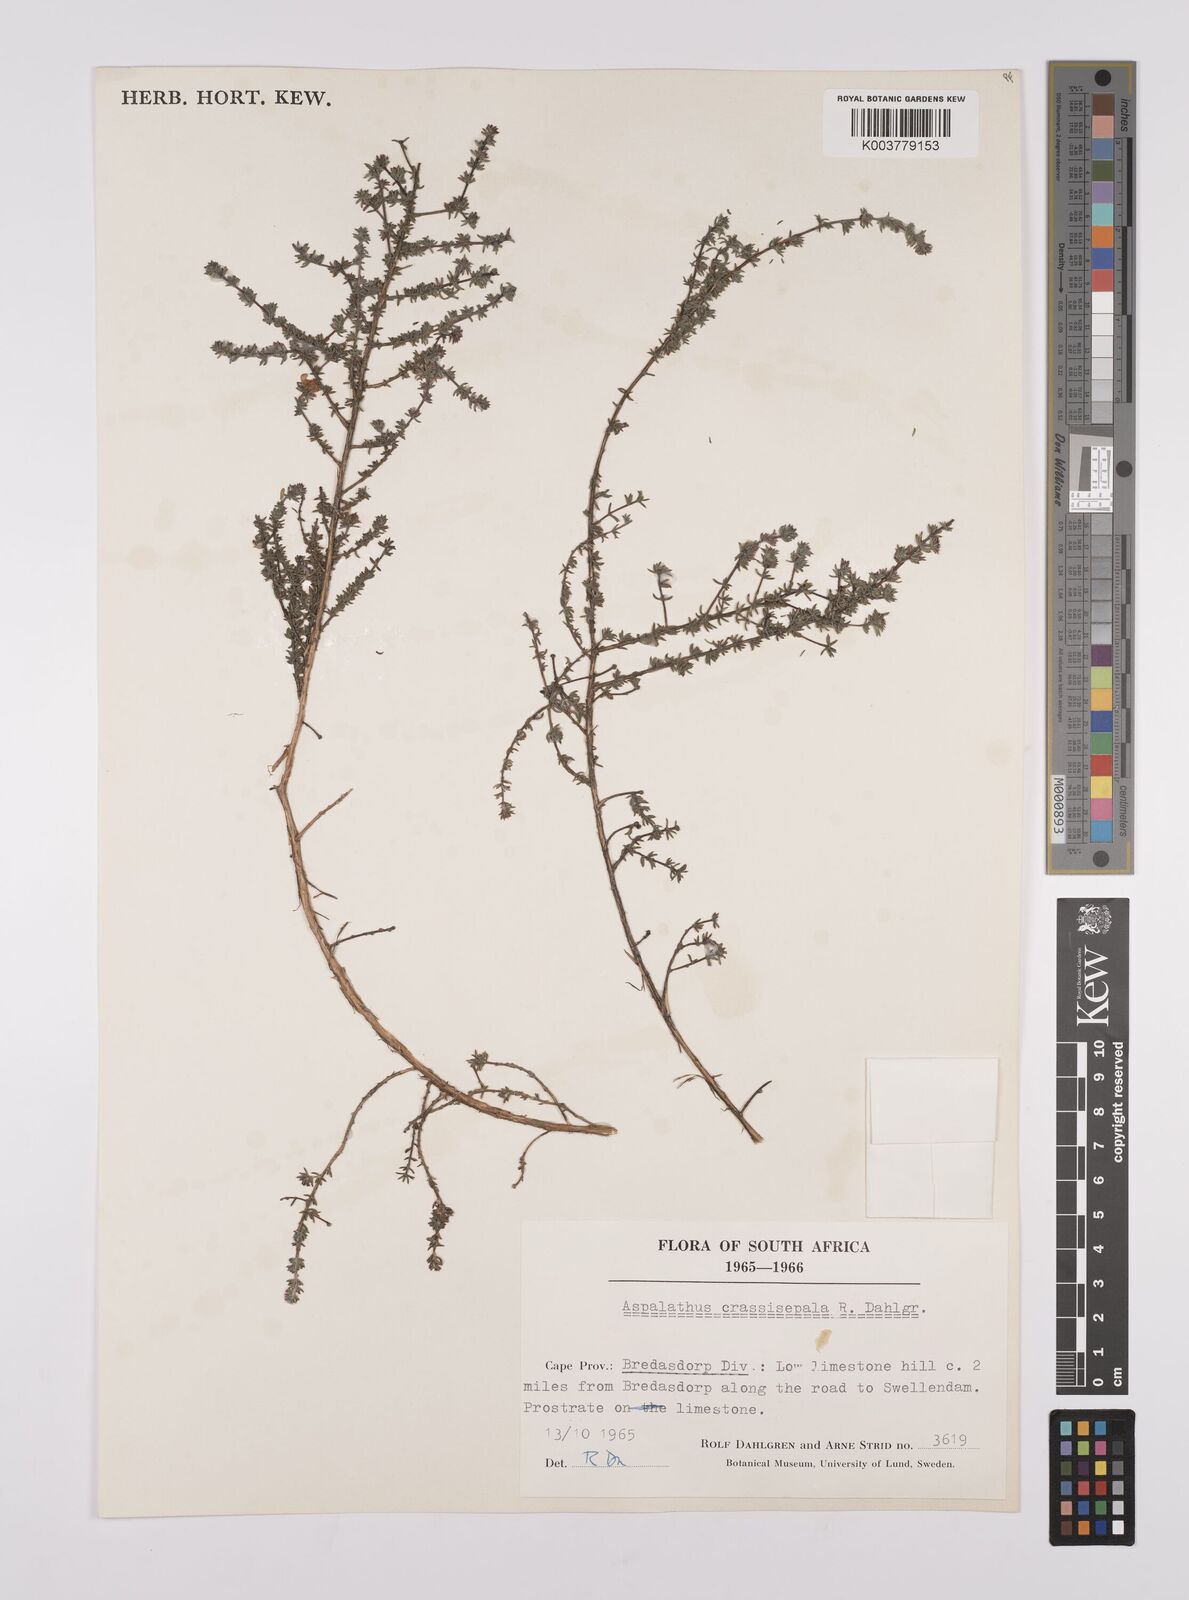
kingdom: Plantae
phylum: Tracheophyta
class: Magnoliopsida
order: Fabales
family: Fabaceae
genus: Aspalathus
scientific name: Aspalathus crassisepala
